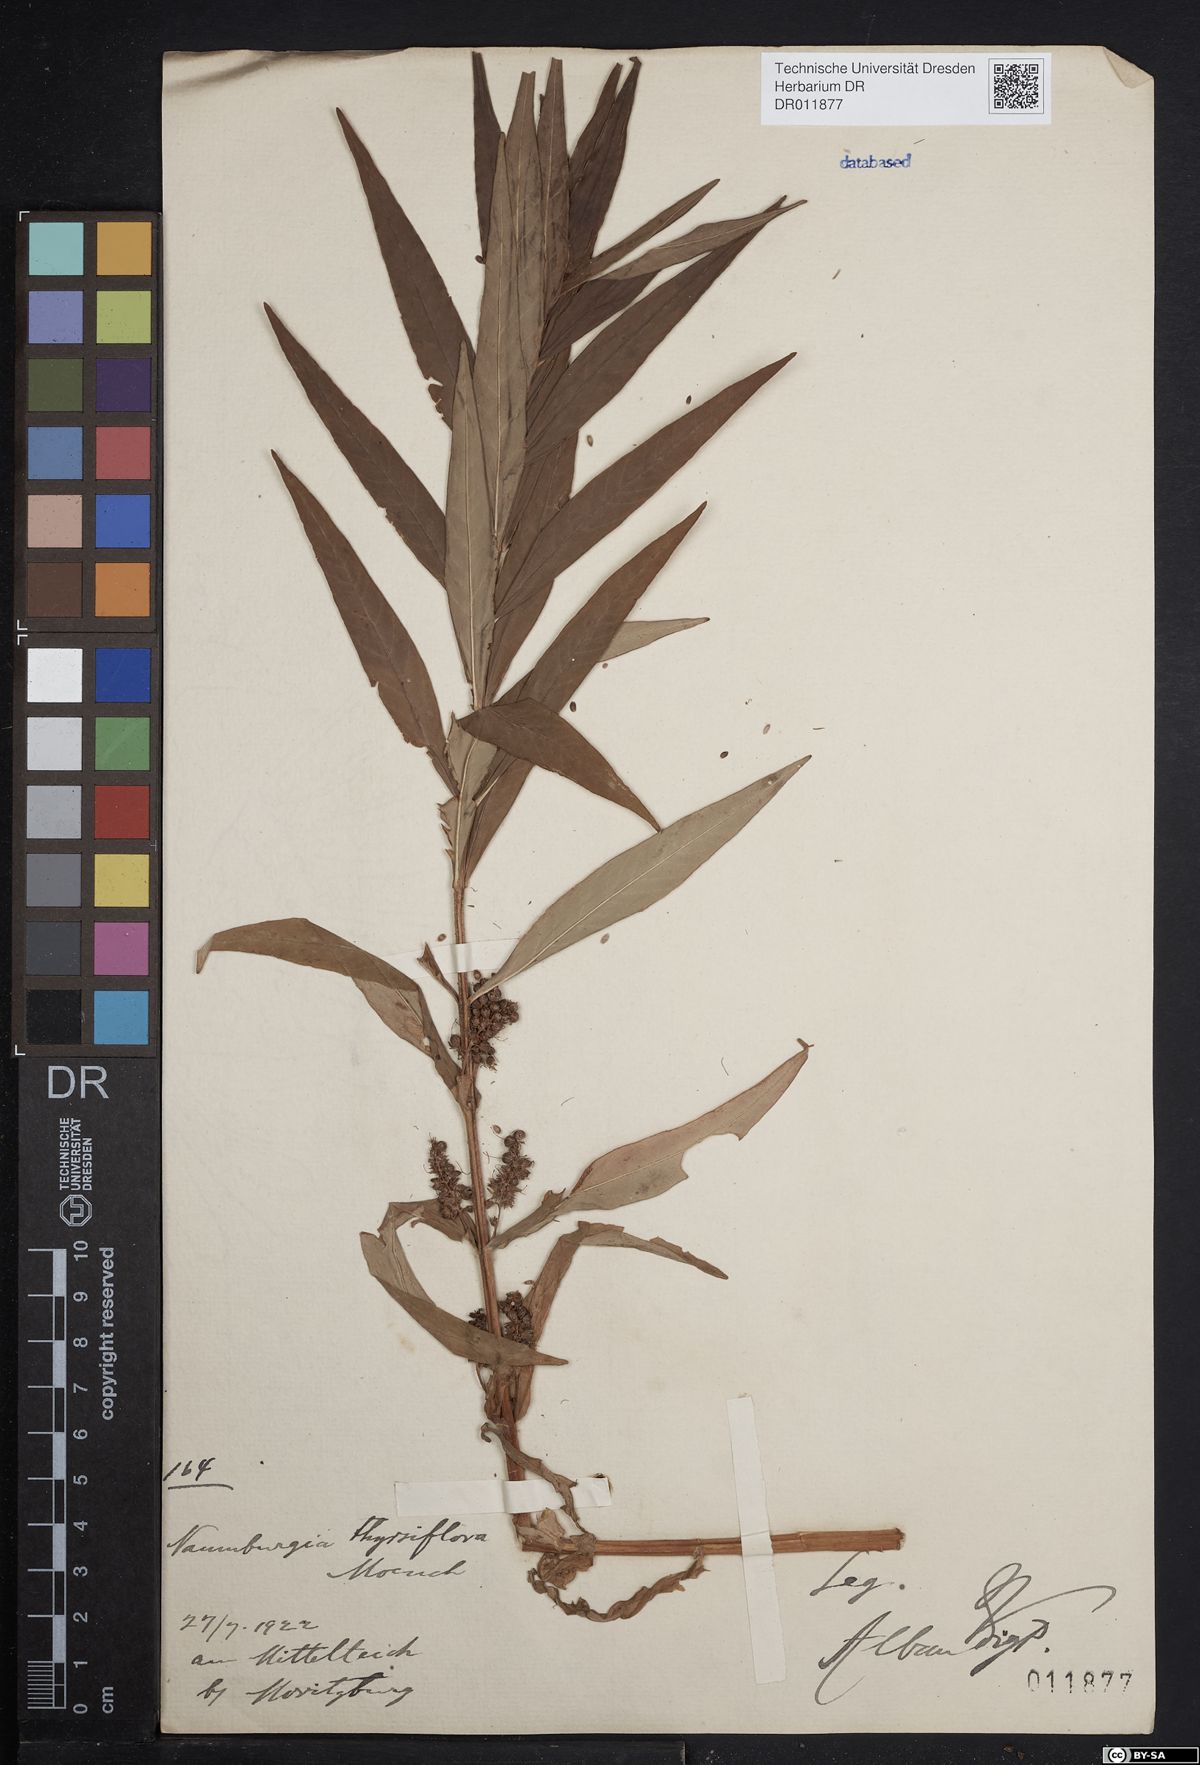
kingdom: Plantae
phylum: Tracheophyta
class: Magnoliopsida
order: Ericales
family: Primulaceae
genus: Lysimachia
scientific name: Lysimachia thyrsiflora
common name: Tufted loosestrife
